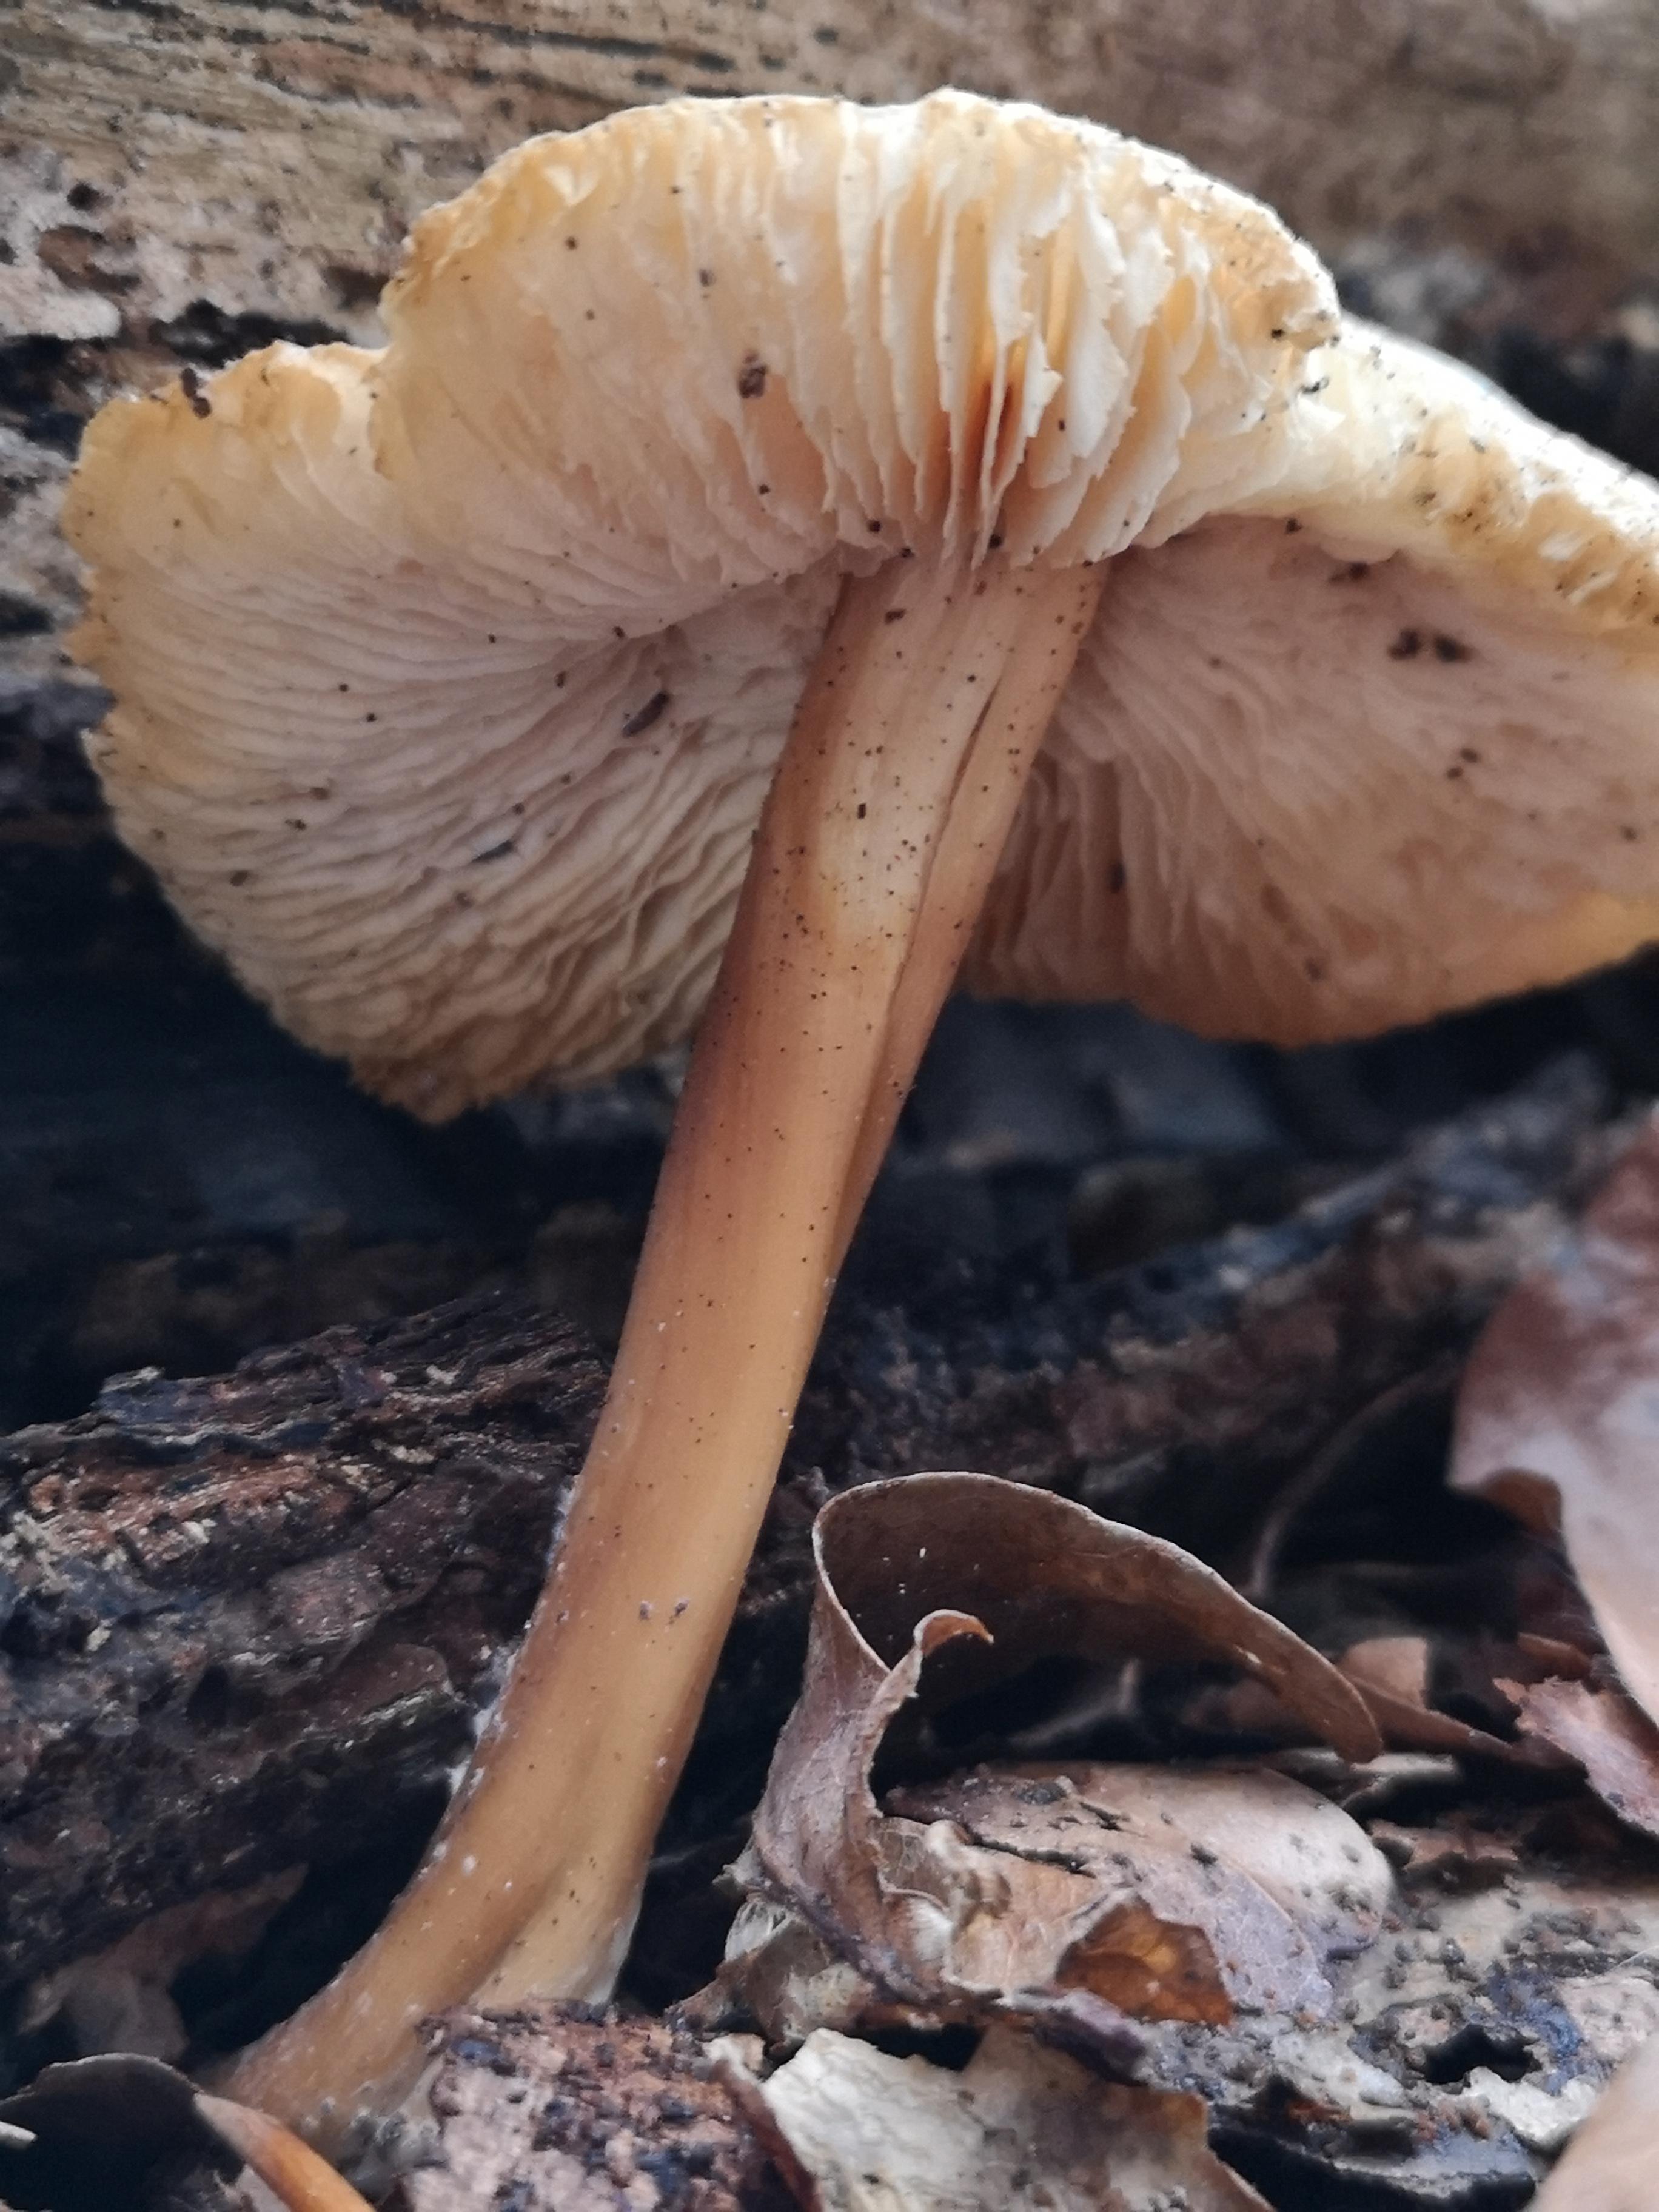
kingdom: Fungi
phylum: Basidiomycota
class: Agaricomycetes
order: Agaricales
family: Omphalotaceae
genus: Gymnopus
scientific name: Gymnopus
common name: fladhat
